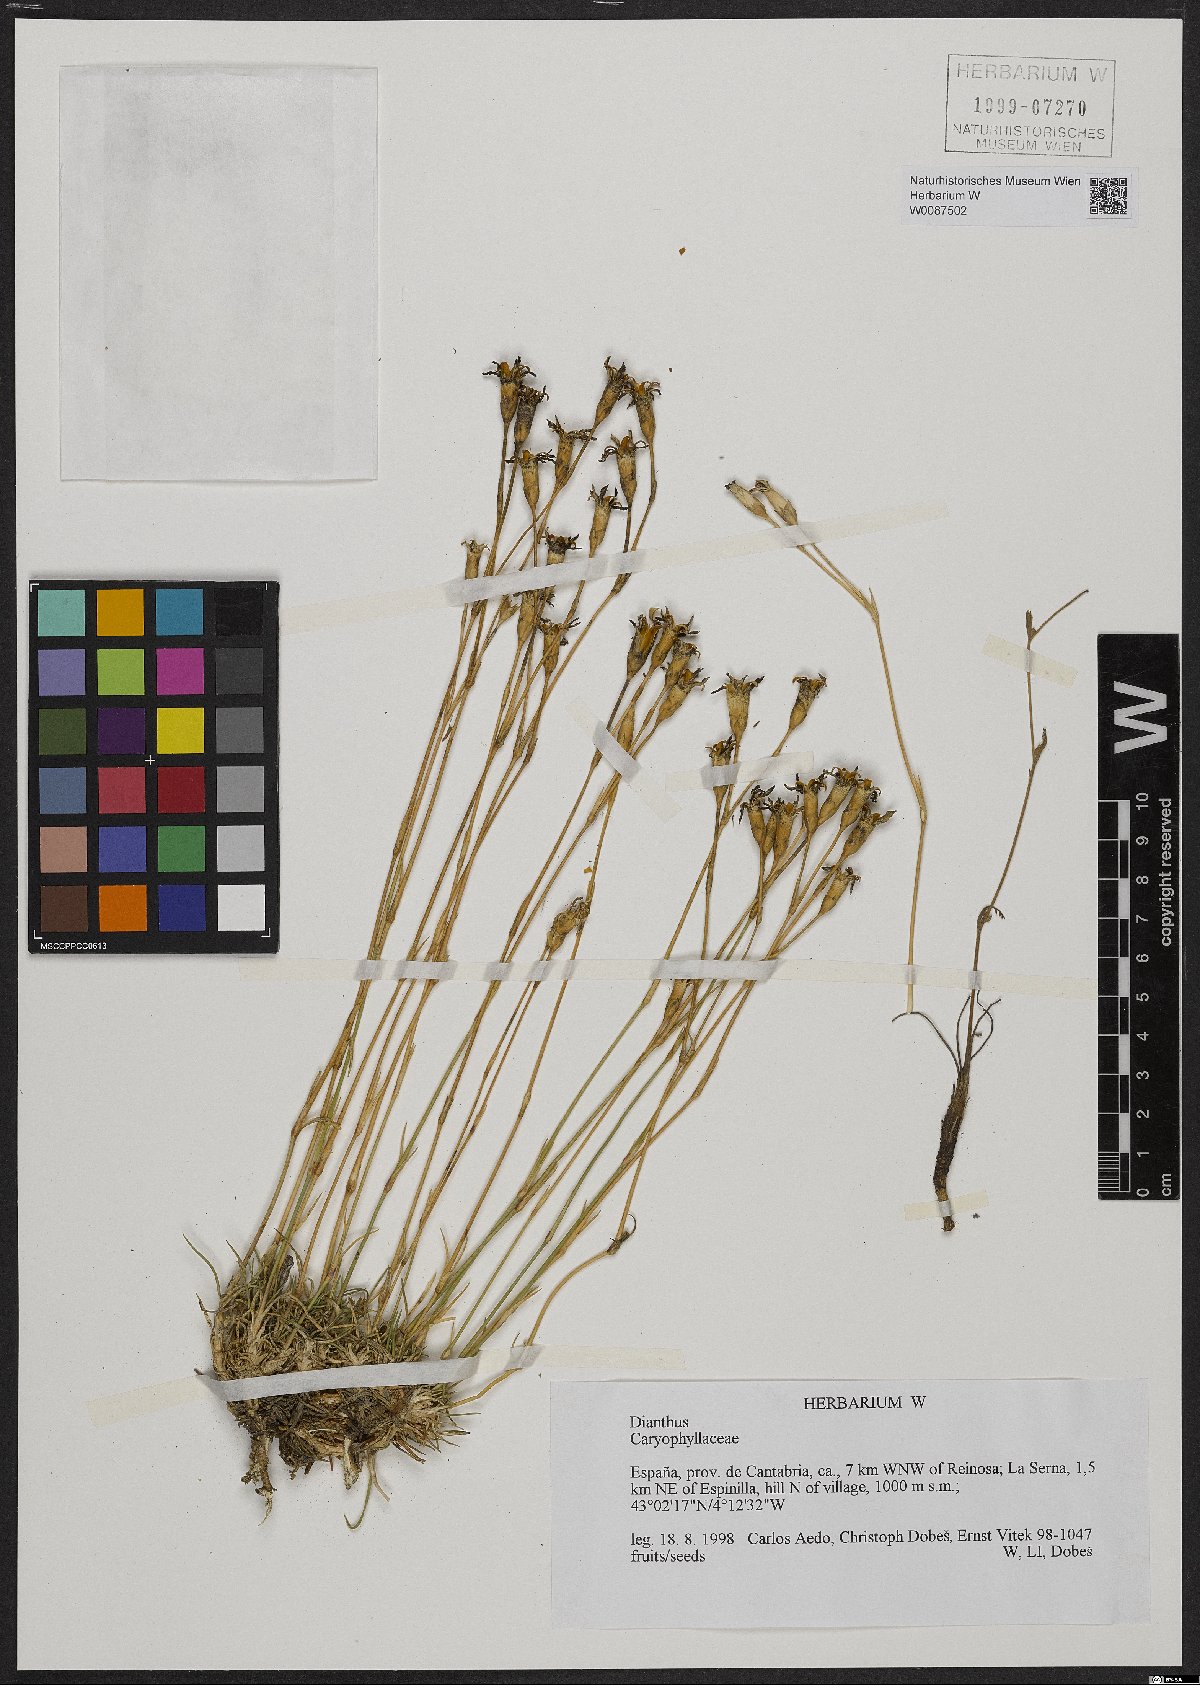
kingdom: Plantae
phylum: Tracheophyta
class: Magnoliopsida
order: Lamiales
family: Scrophulariaceae
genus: Verbascum
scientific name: Verbascum
